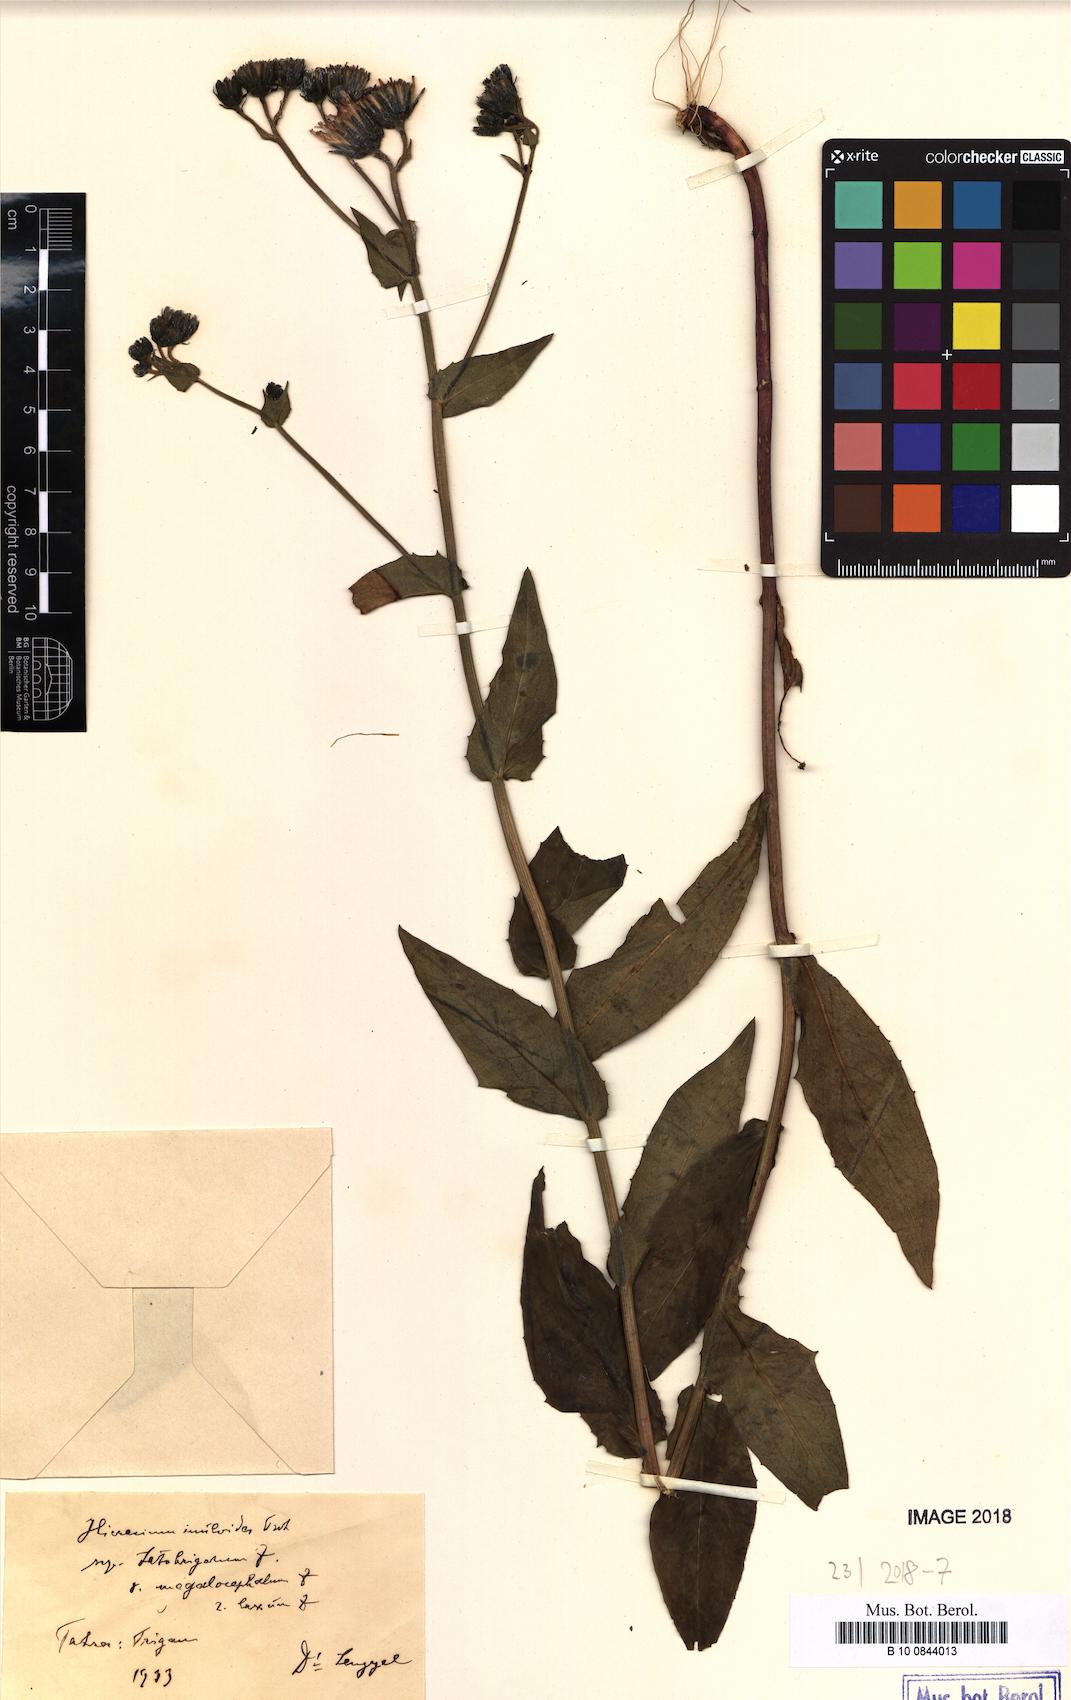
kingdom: Plantae
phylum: Tracheophyta
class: Magnoliopsida
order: Asterales
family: Asteraceae
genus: Hieracium
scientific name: Hieracium inuloides
